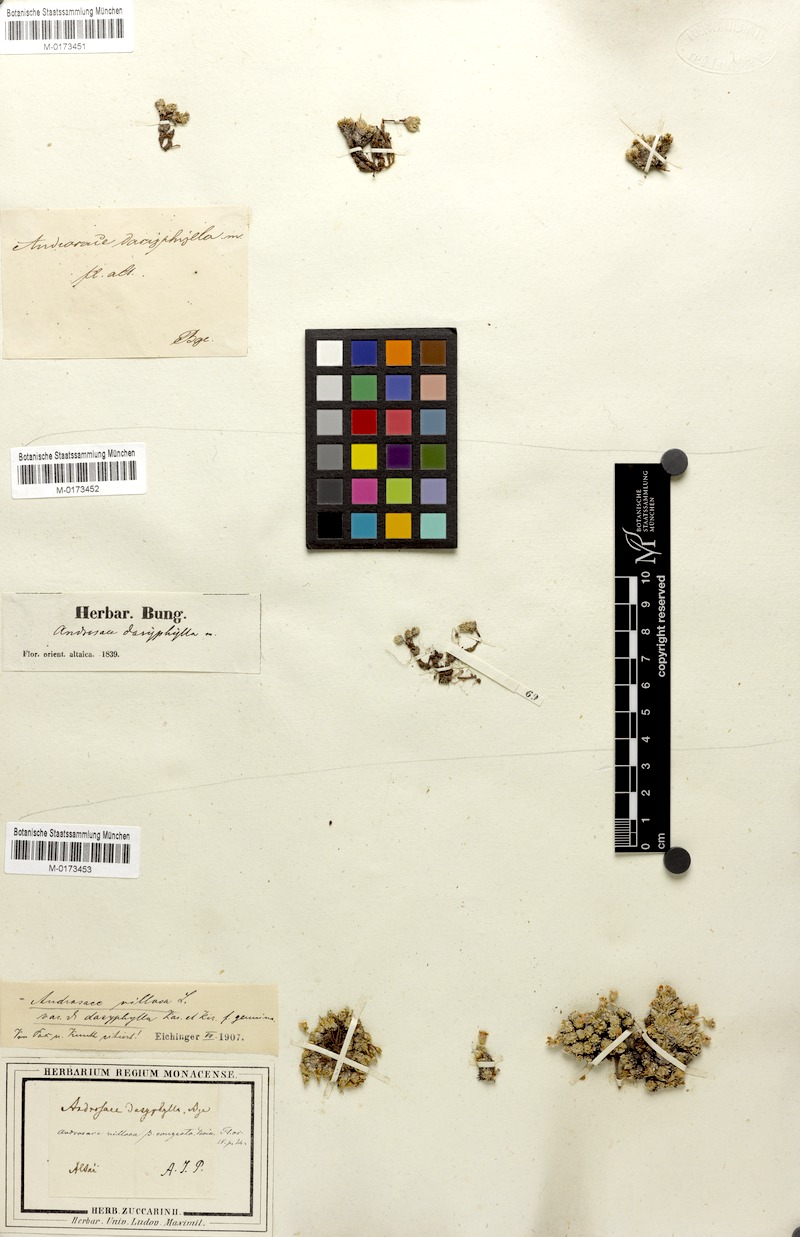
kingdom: Plantae
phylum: Tracheophyta
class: Magnoliopsida
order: Ericales
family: Primulaceae
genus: Androsace
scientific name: Androsace villosa
